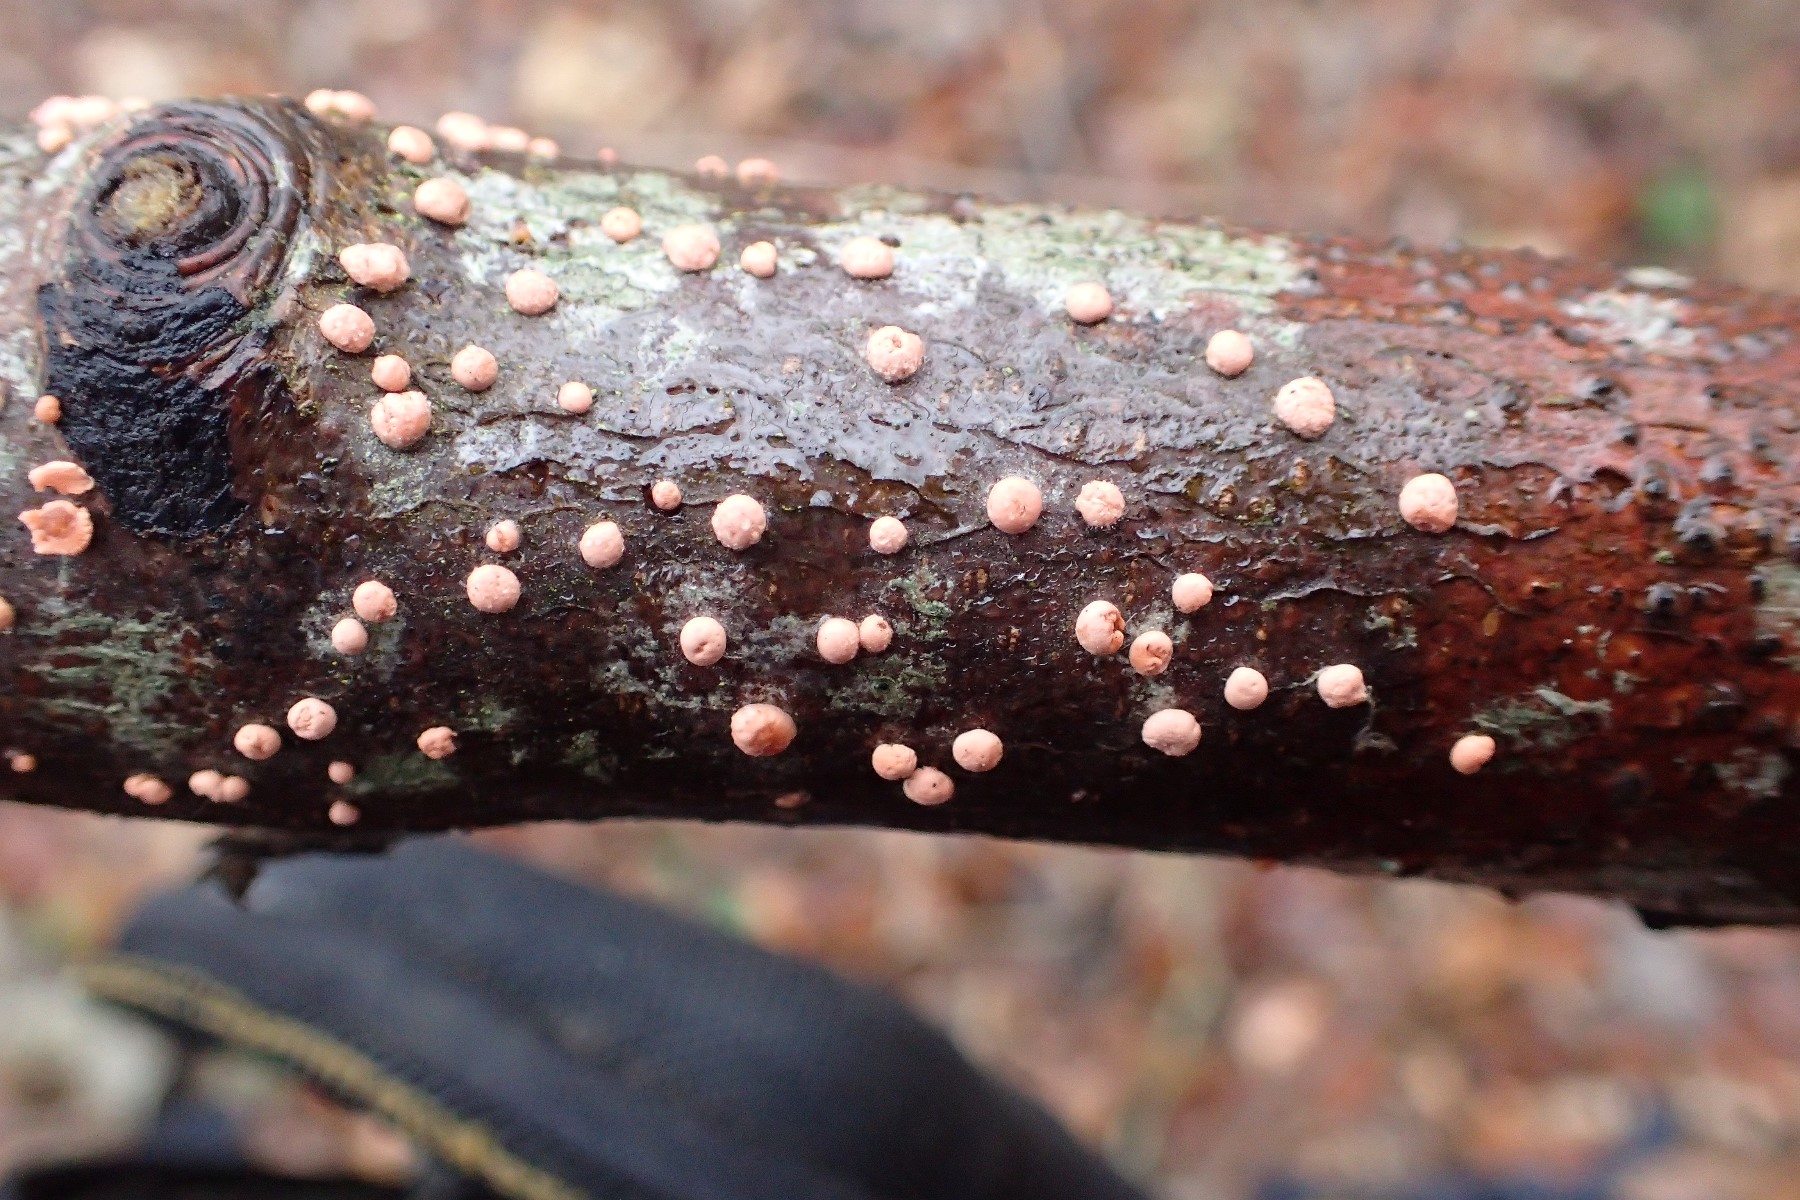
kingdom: Fungi
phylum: Ascomycota
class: Sordariomycetes
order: Hypocreales
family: Nectriaceae
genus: Nectria
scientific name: Nectria cinnabarina
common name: almindelig cinnobersvamp
